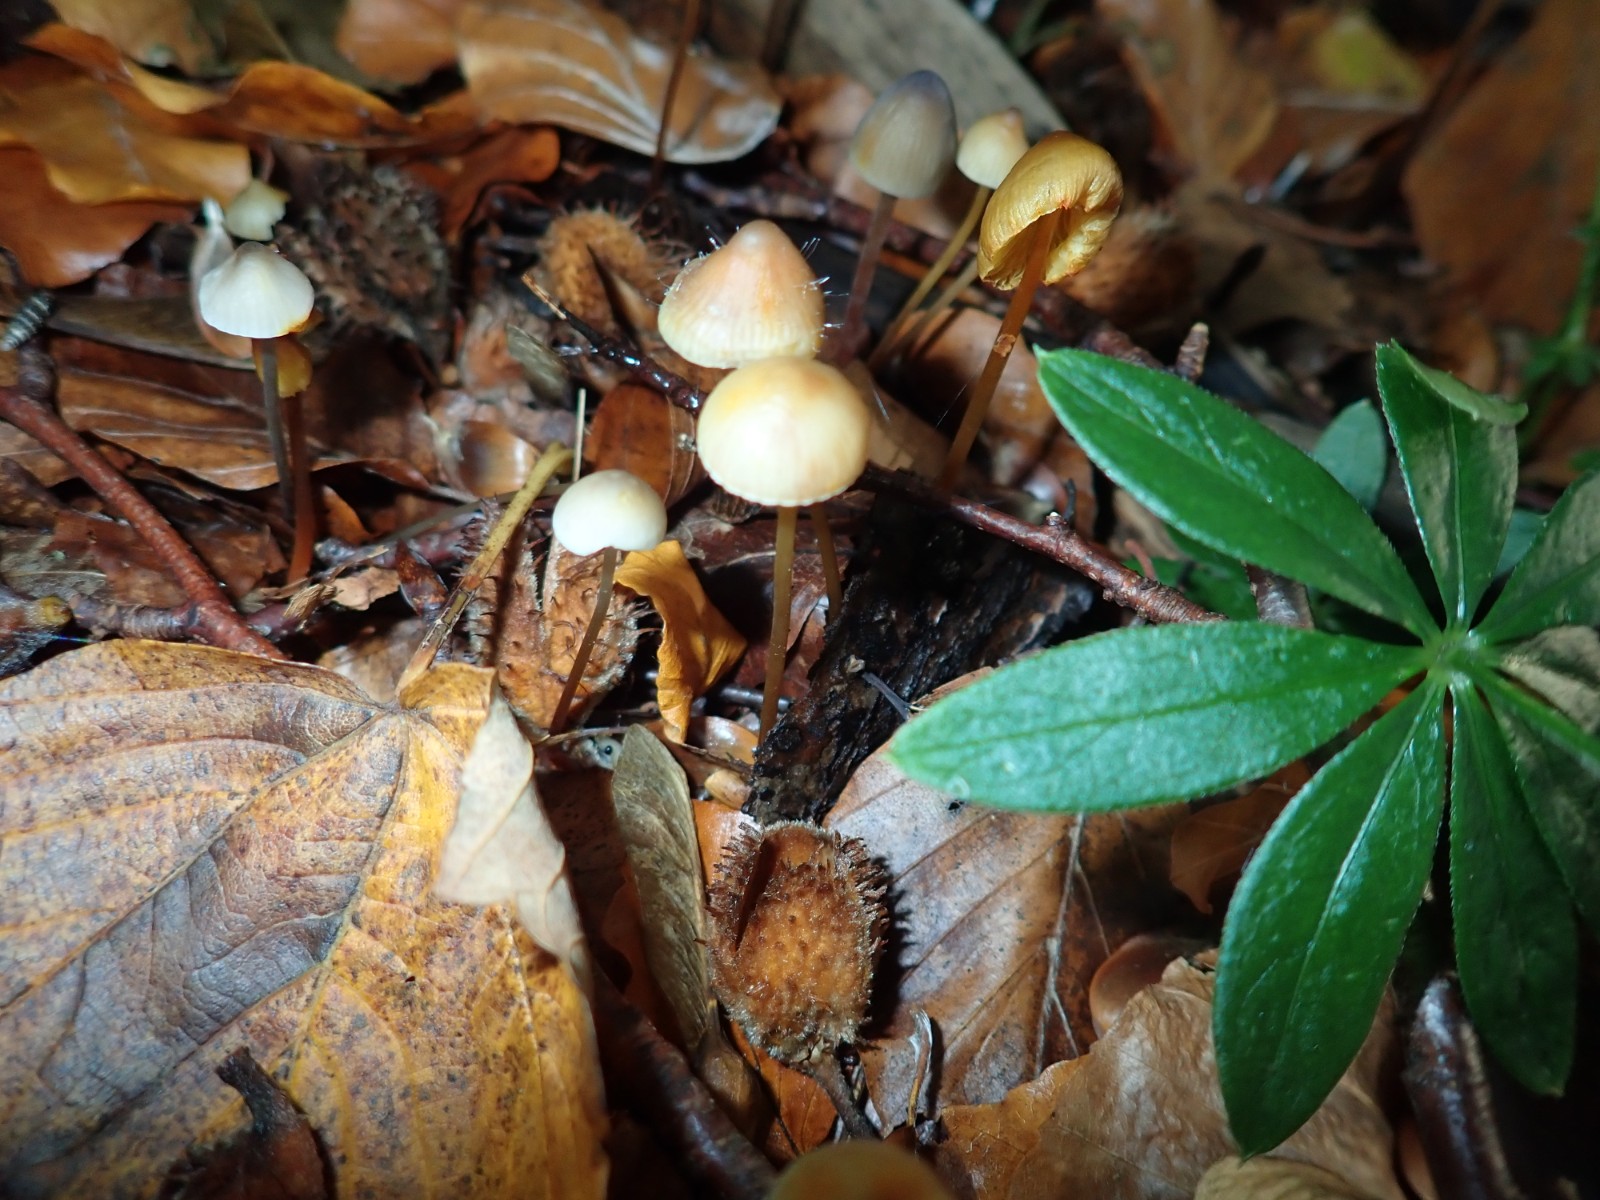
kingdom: Fungi
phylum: Basidiomycota
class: Agaricomycetes
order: Agaricales
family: Mycenaceae
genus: Mycena
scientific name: Mycena crocata
